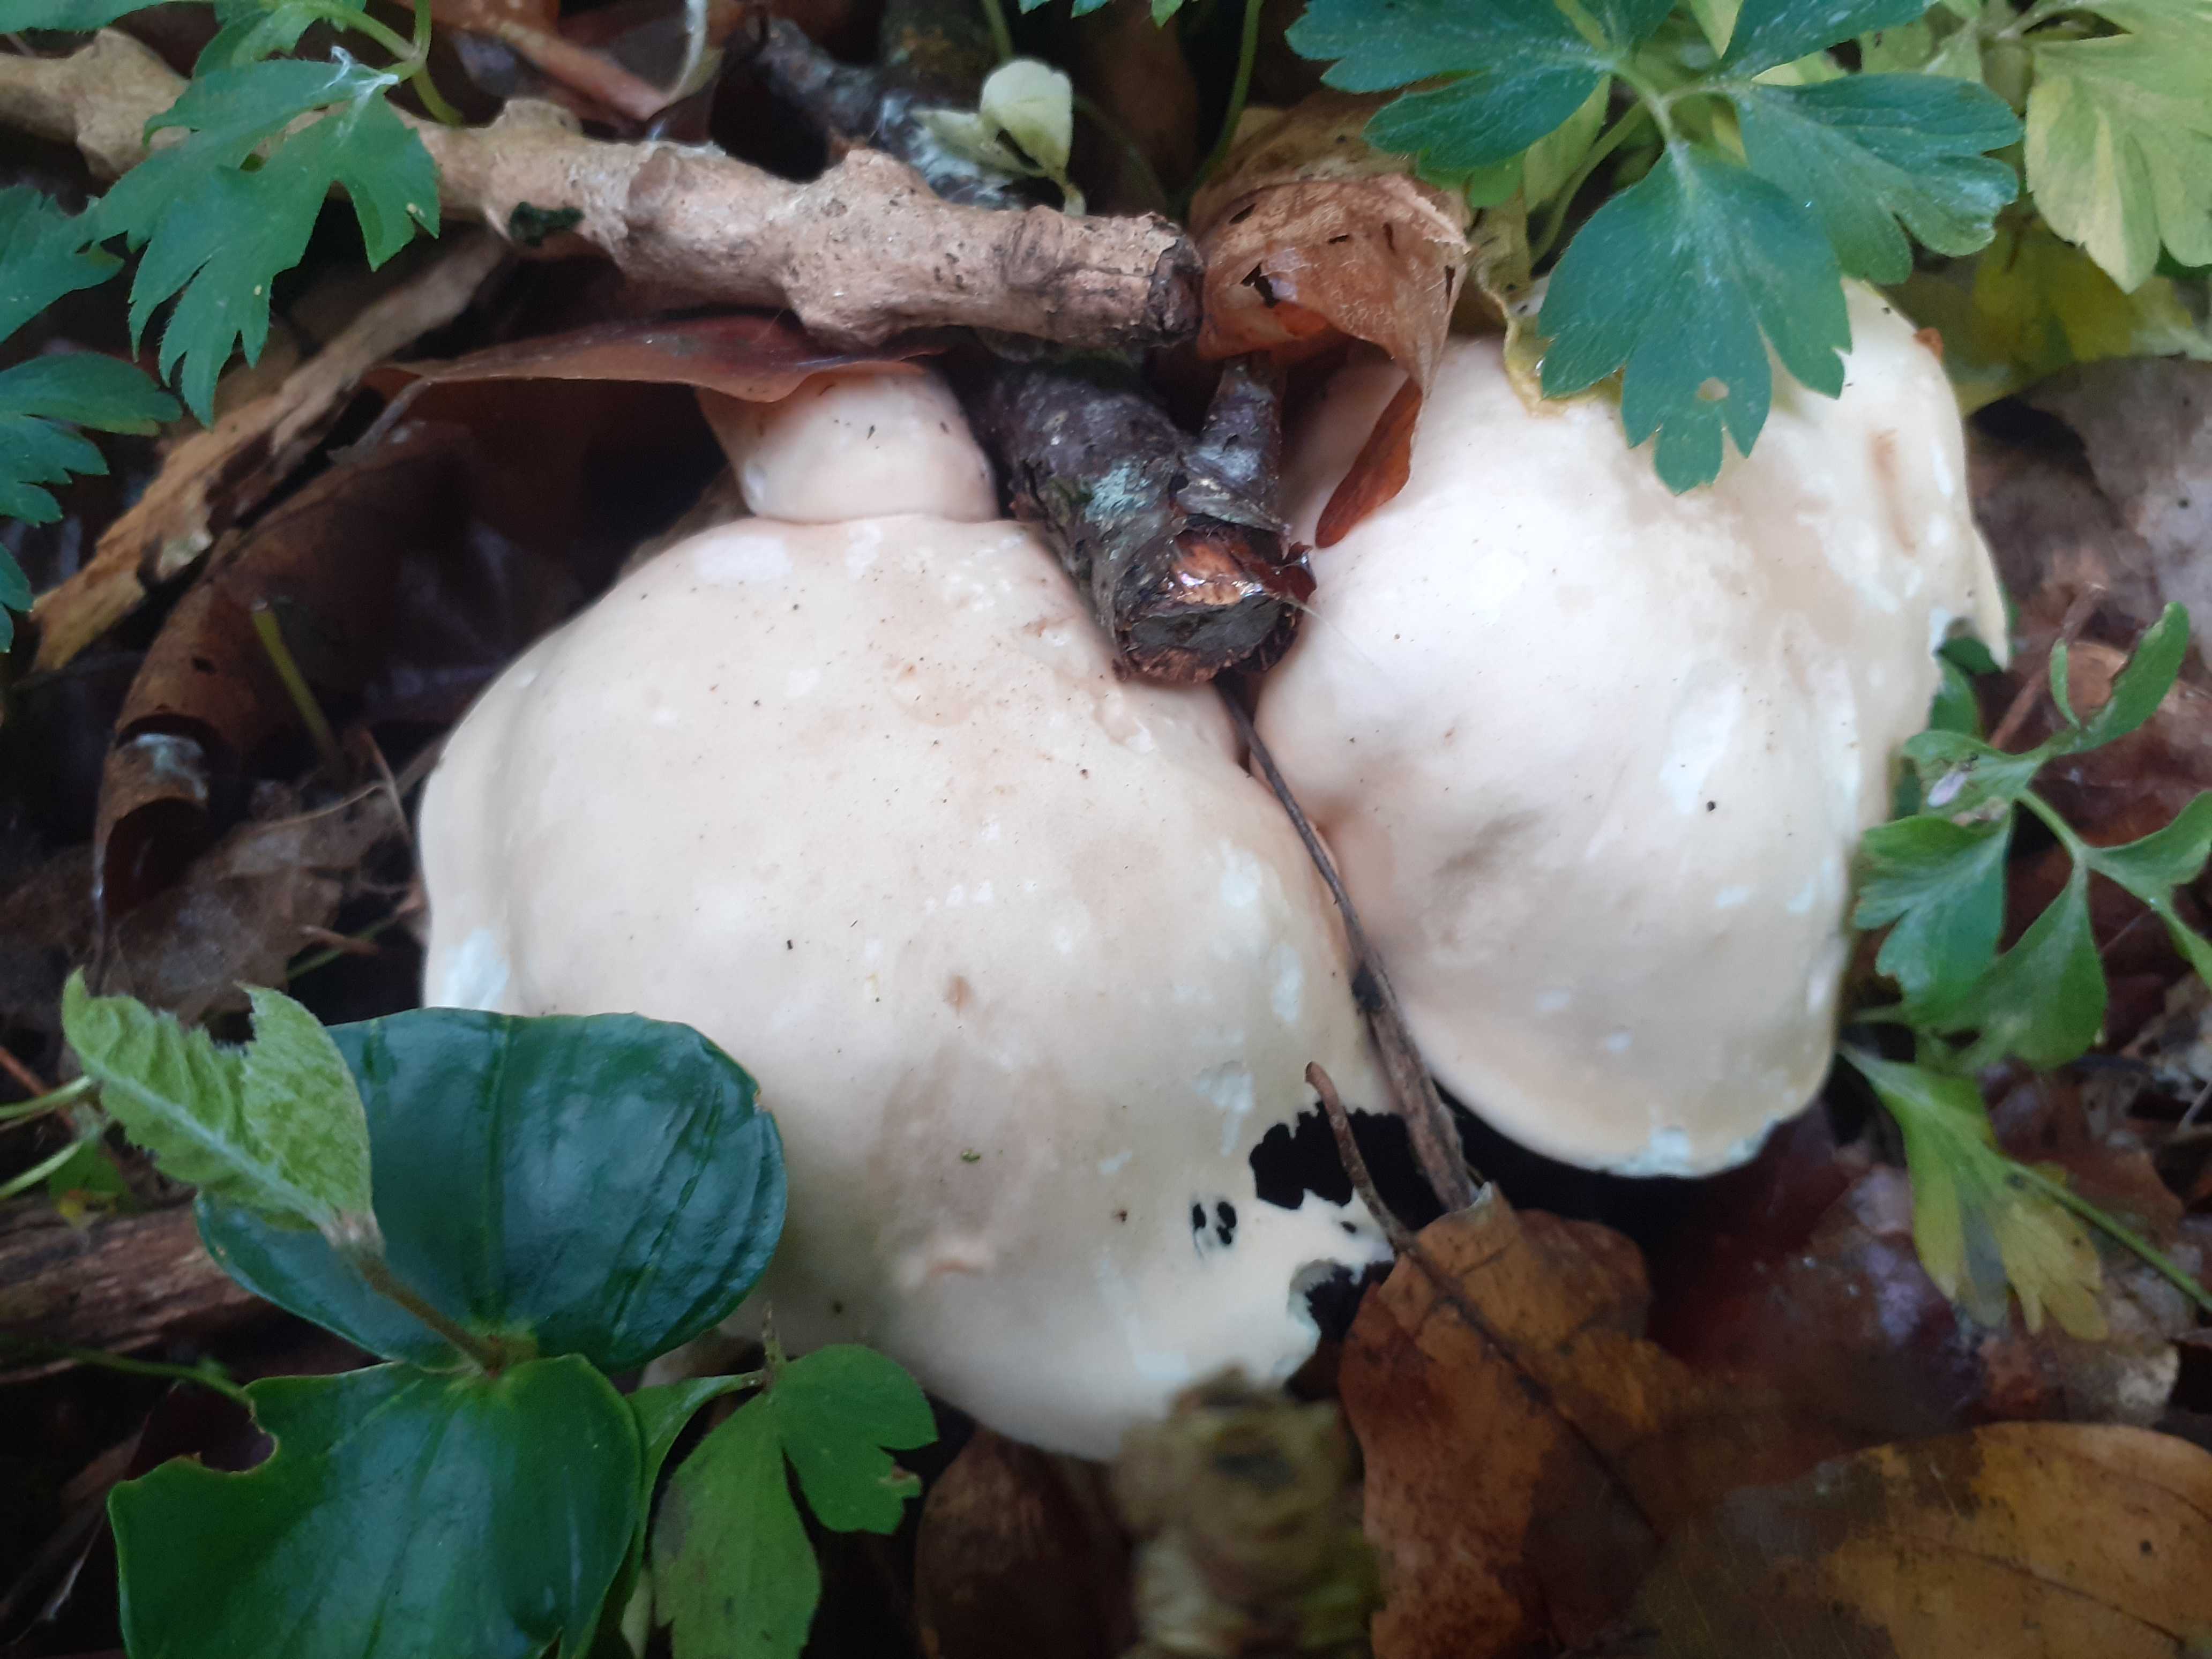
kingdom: Fungi
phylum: Basidiomycota
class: Agaricomycetes
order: Agaricales
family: Lyophyllaceae
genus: Calocybe
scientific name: Calocybe gambosa
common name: vårmusseron
